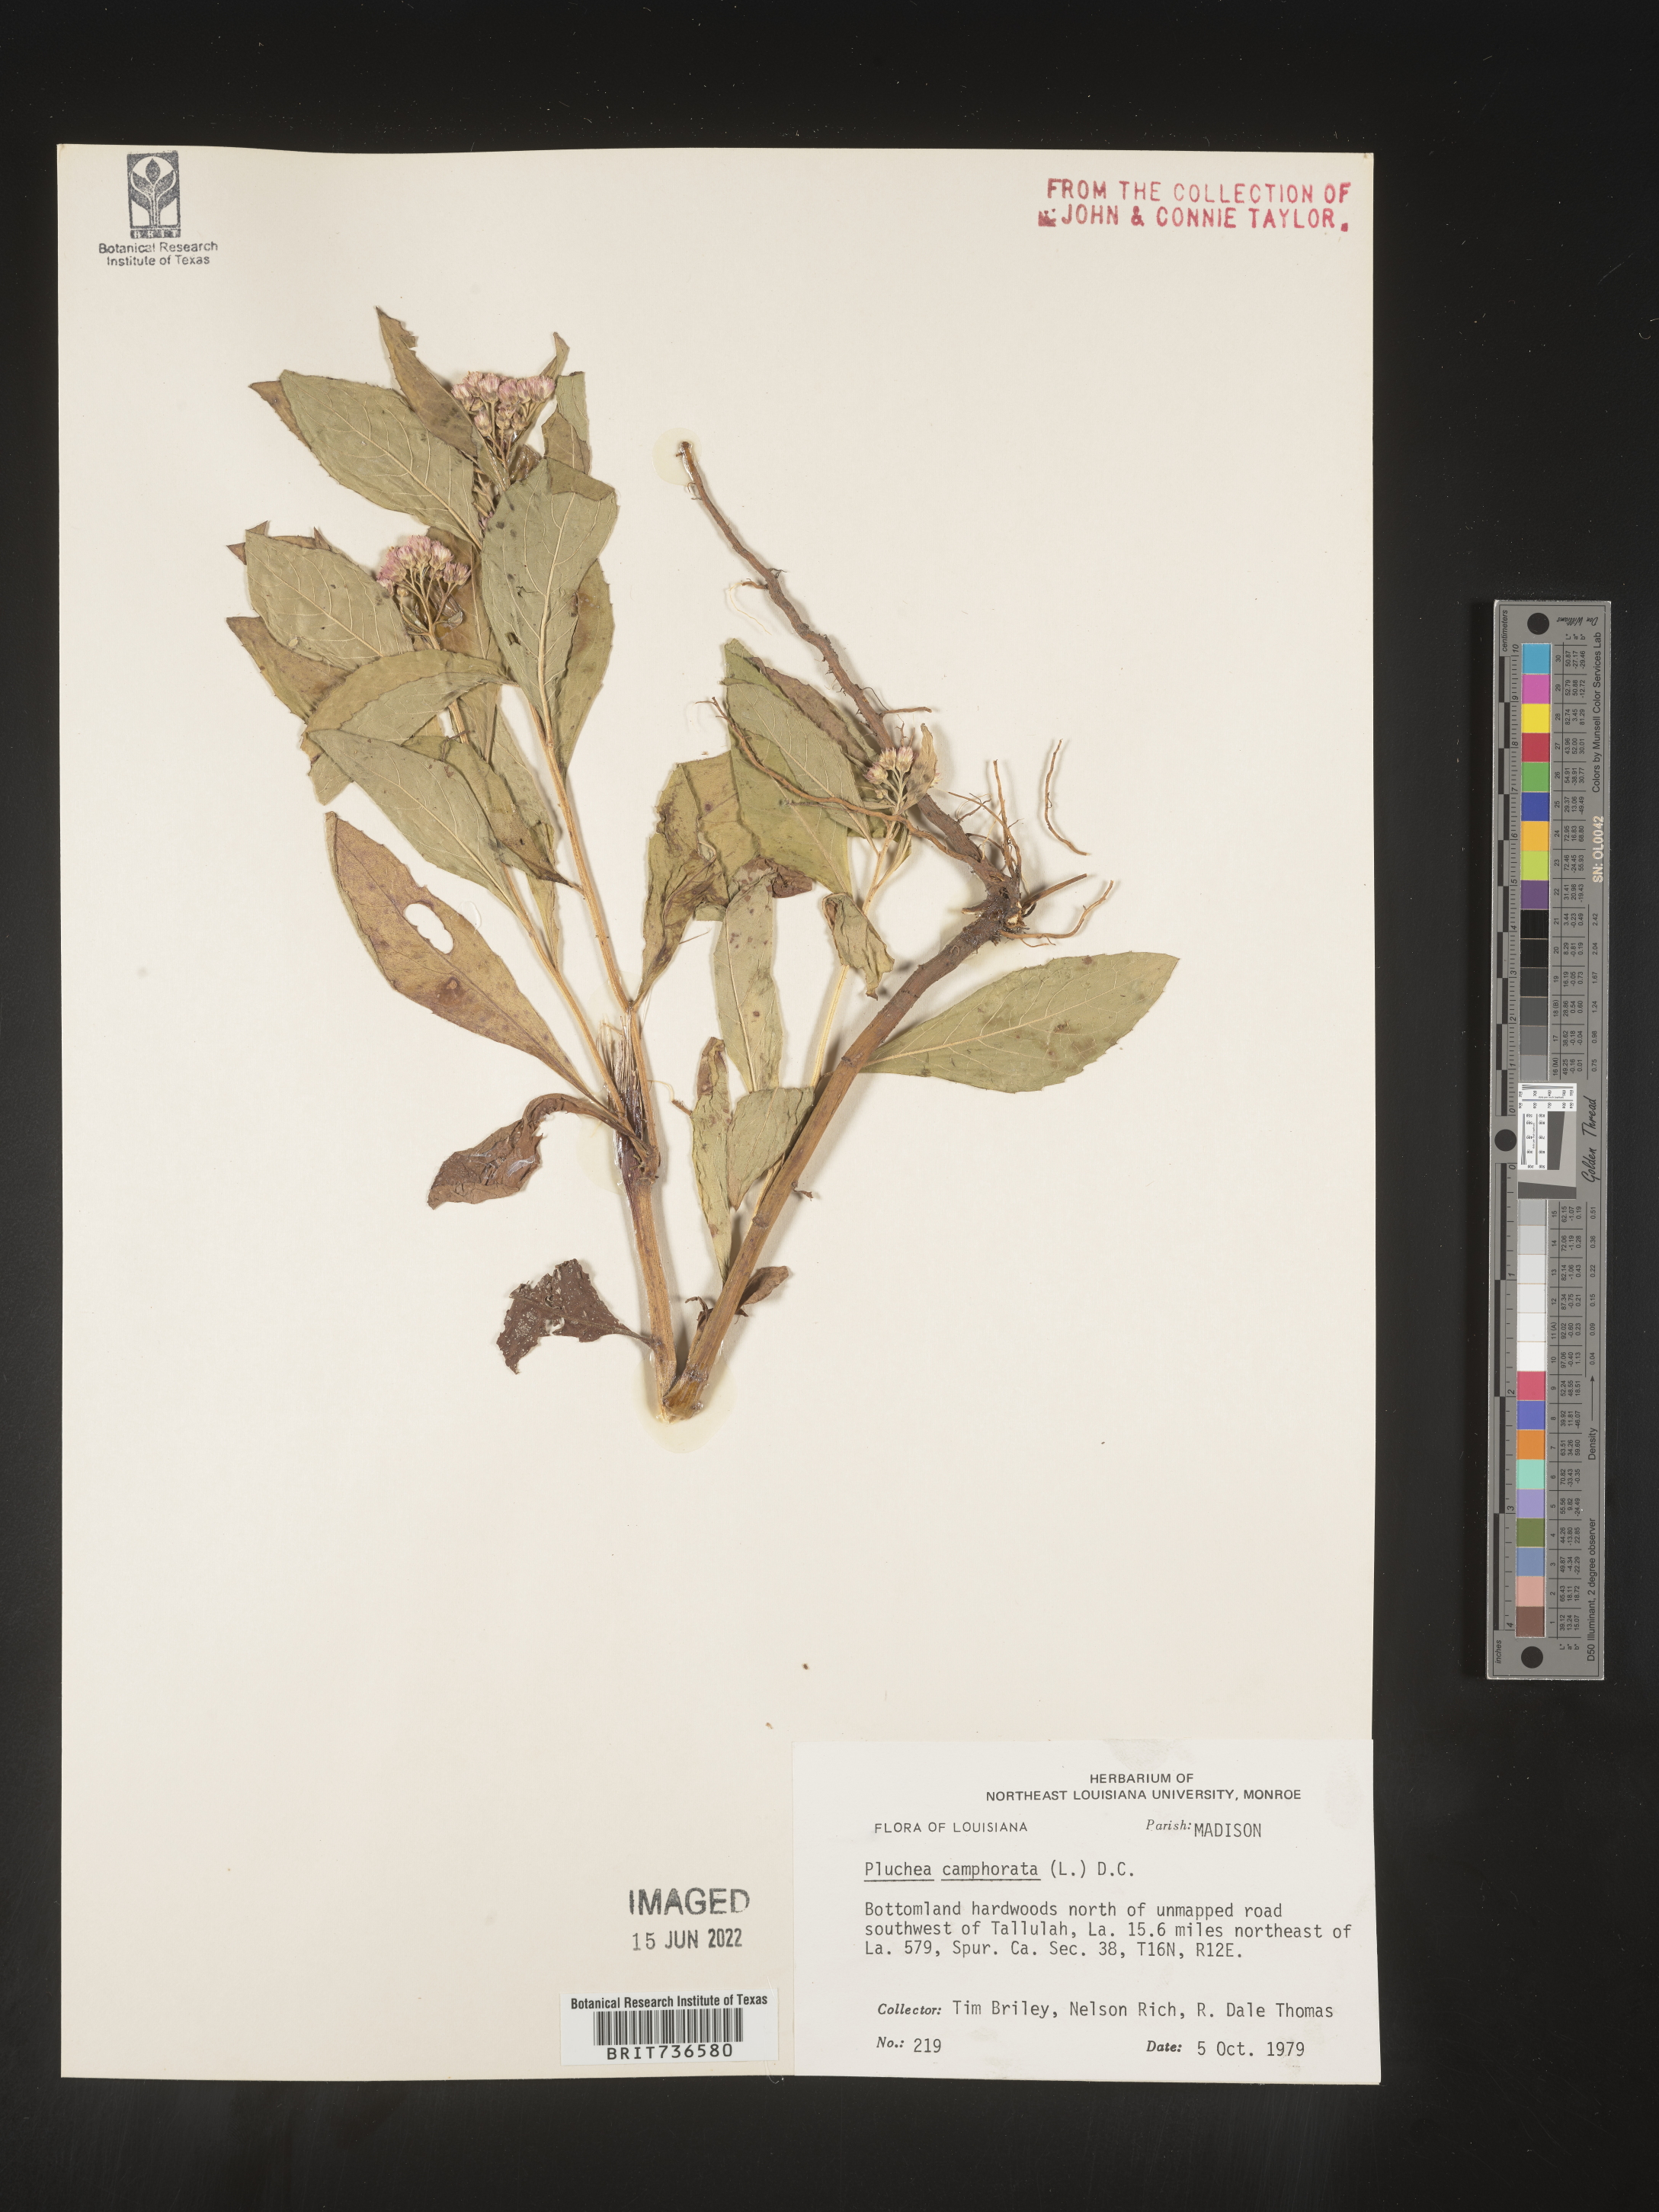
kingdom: Plantae
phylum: Tracheophyta
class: Magnoliopsida
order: Asterales
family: Asteraceae
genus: Pluchea
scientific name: Pluchea camphorata
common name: Camphor pluchea
